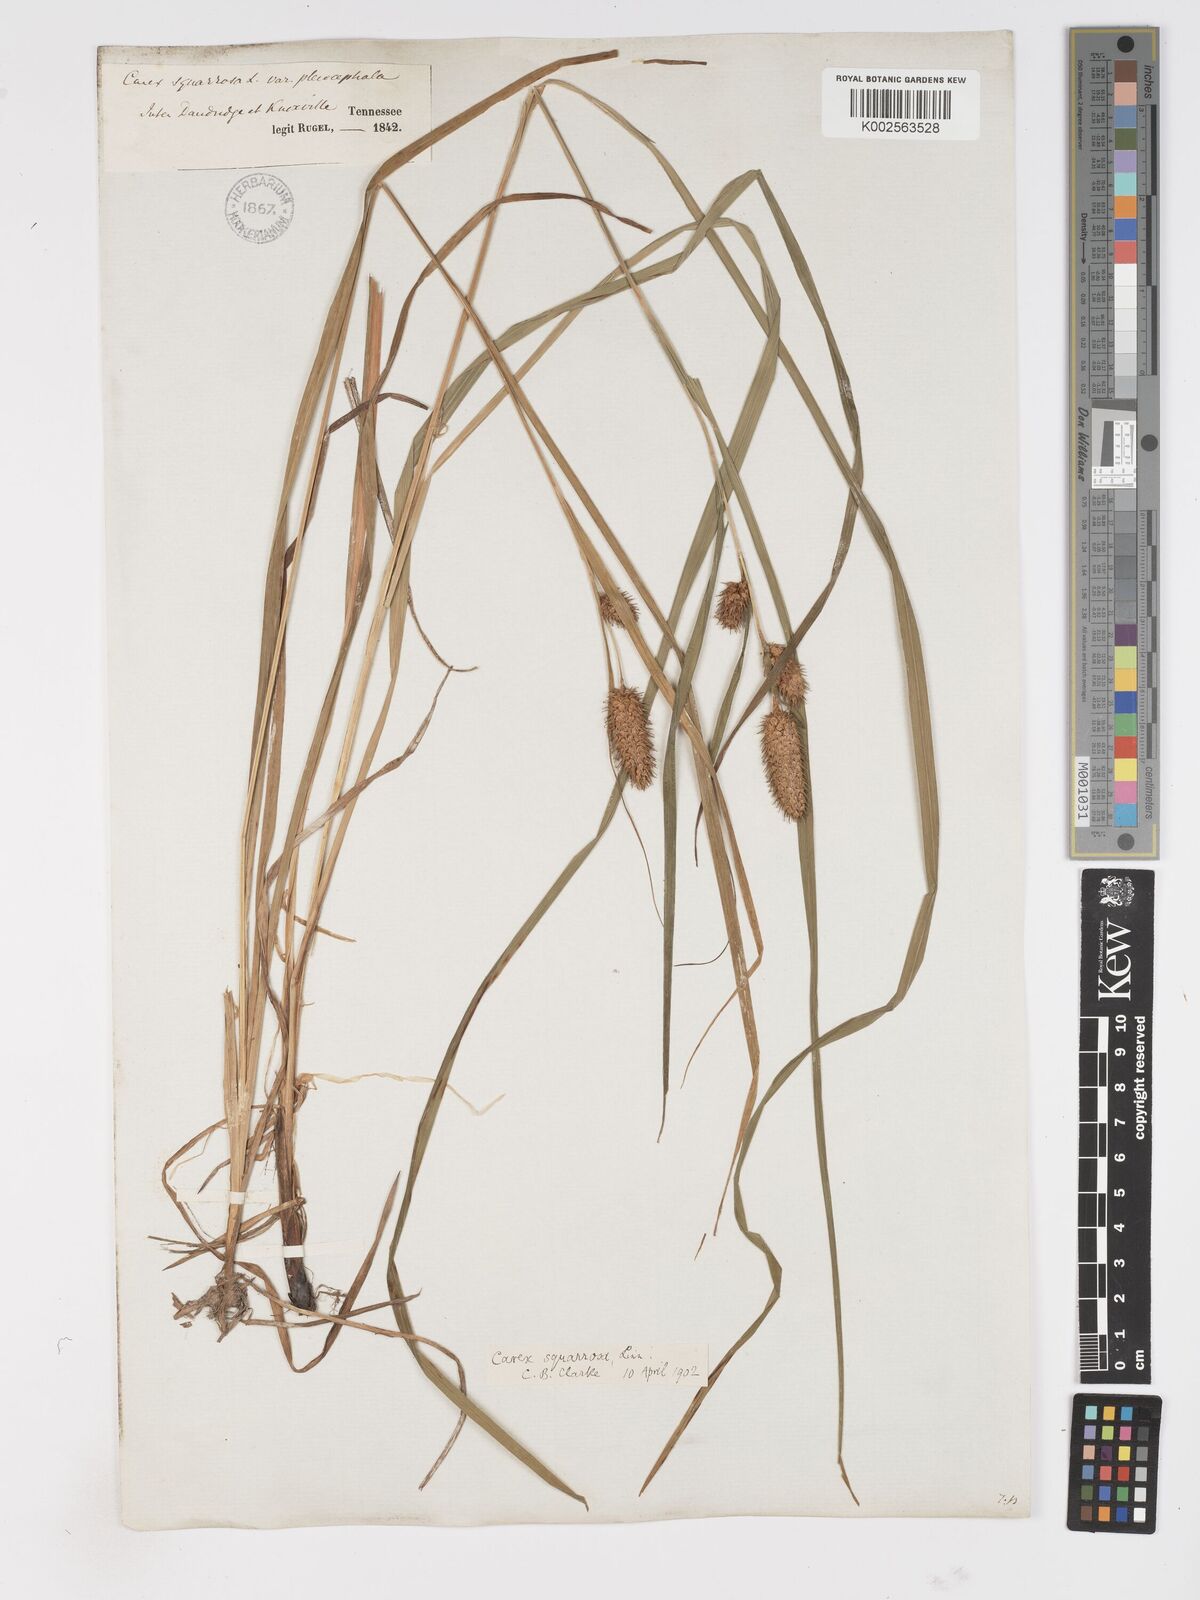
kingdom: Plantae
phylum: Tracheophyta
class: Liliopsida
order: Poales
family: Cyperaceae
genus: Carex
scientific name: Carex squarrosa
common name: Narrow-leaved cattail sedge
